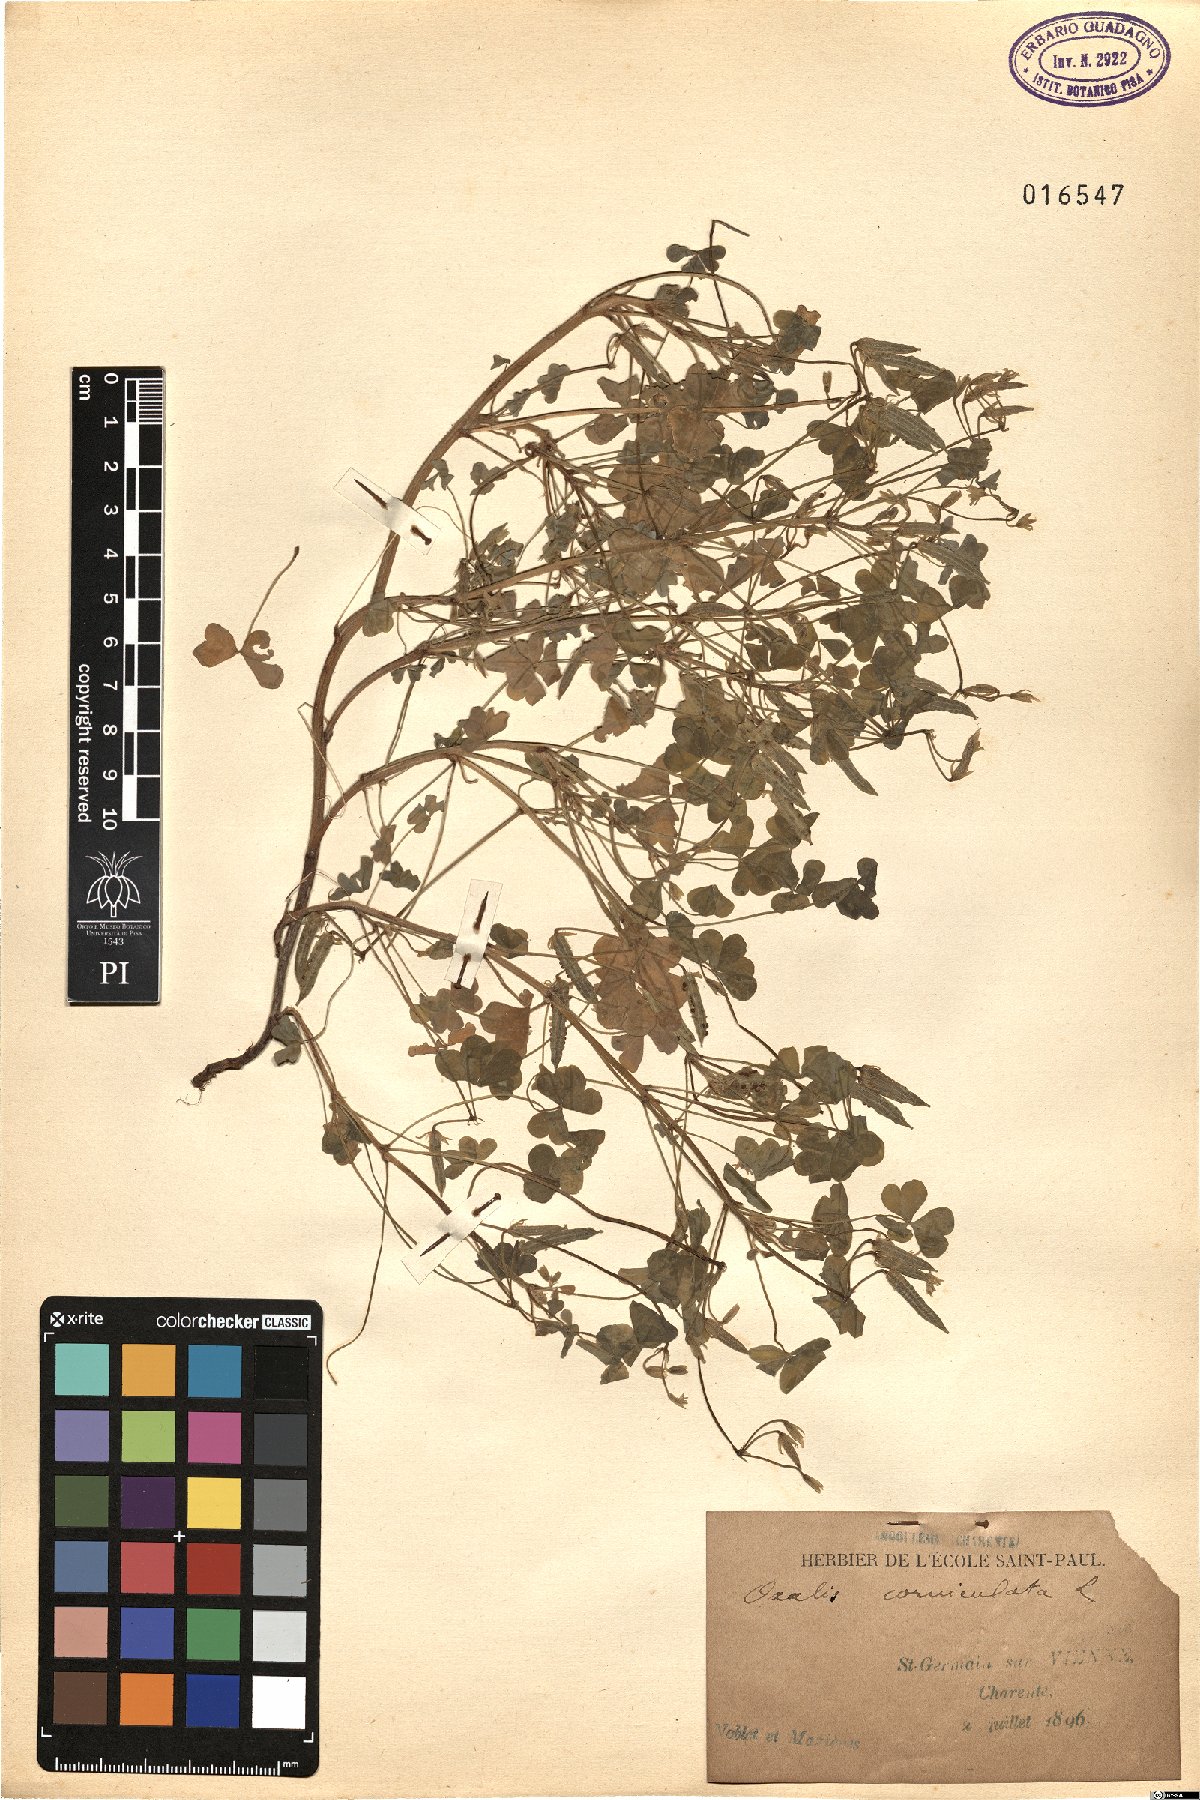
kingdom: Plantae
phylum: Tracheophyta
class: Magnoliopsida
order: Oxalidales
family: Oxalidaceae
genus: Oxalis
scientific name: Oxalis corniculata
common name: Procumbent yellow-sorrel
